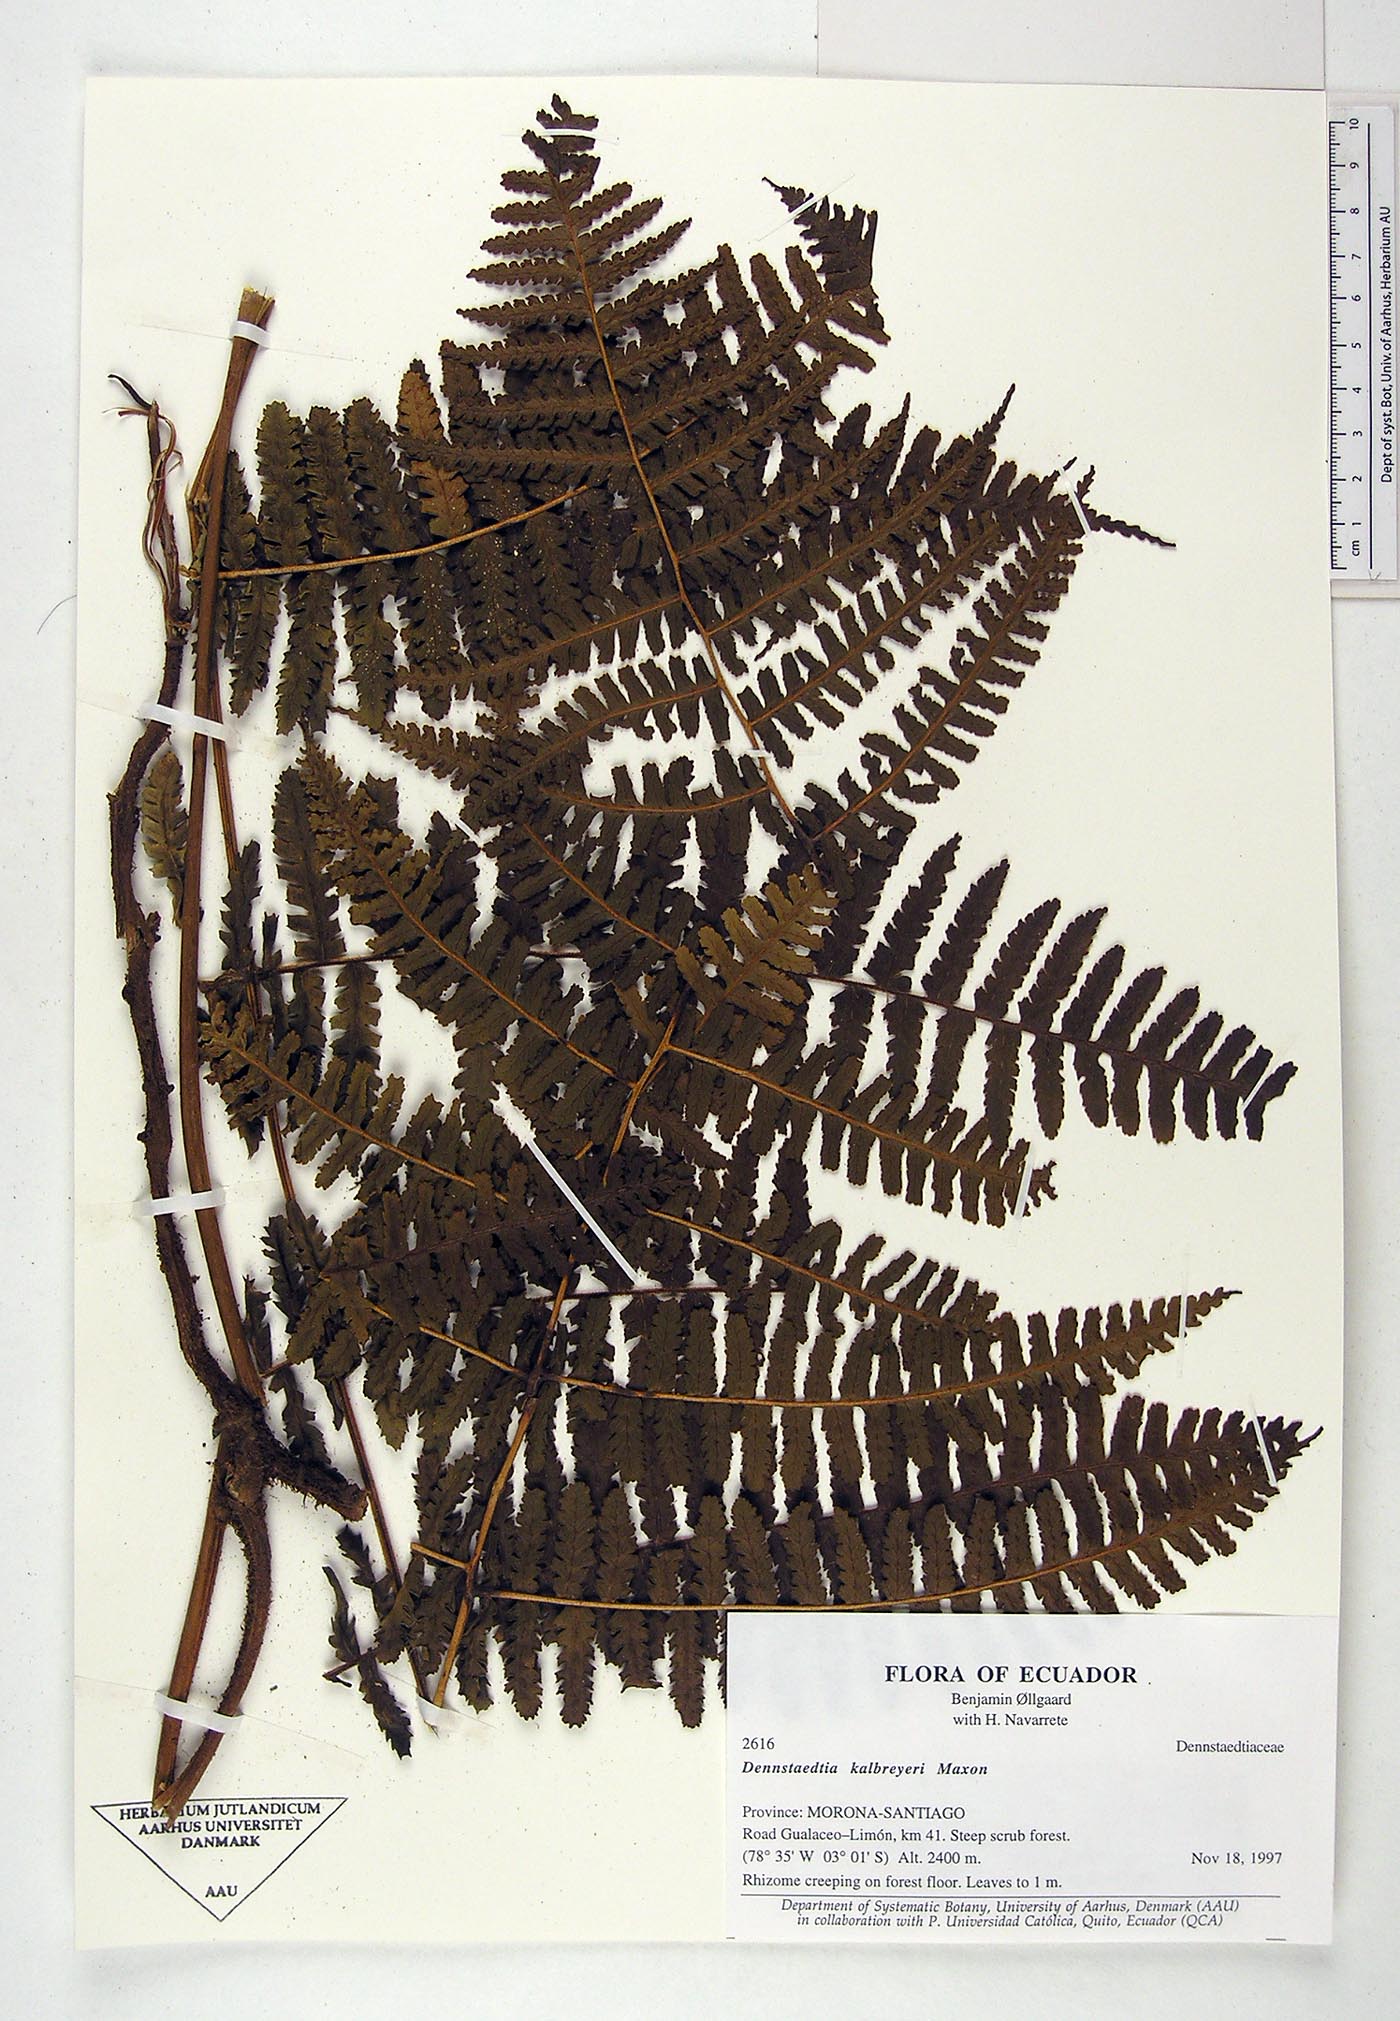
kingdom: Plantae
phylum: Tracheophyta
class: Polypodiopsida
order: Polypodiales
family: Dennstaedtiaceae
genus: Dennstaedtia
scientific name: Dennstaedtia obtusifolia
